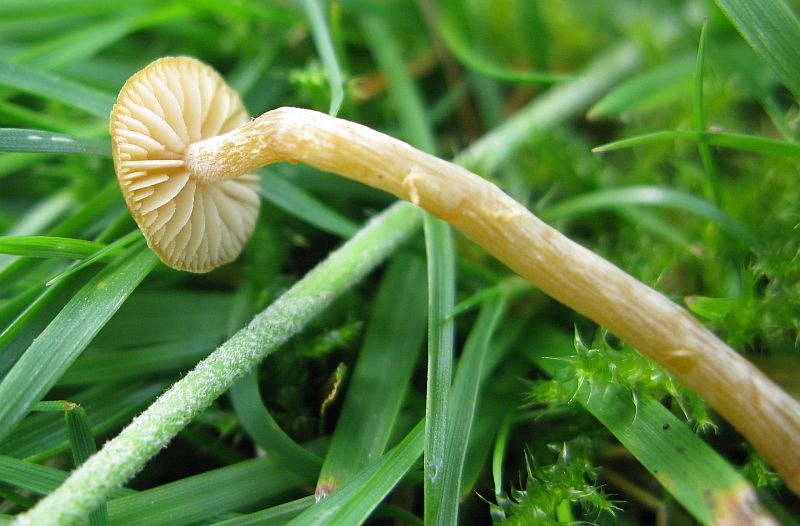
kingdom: Fungi
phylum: Basidiomycota
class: Agaricomycetes
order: Agaricales
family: Hymenogastraceae
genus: Galerina
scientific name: Galerina pumila
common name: honninggul hjelmhat
